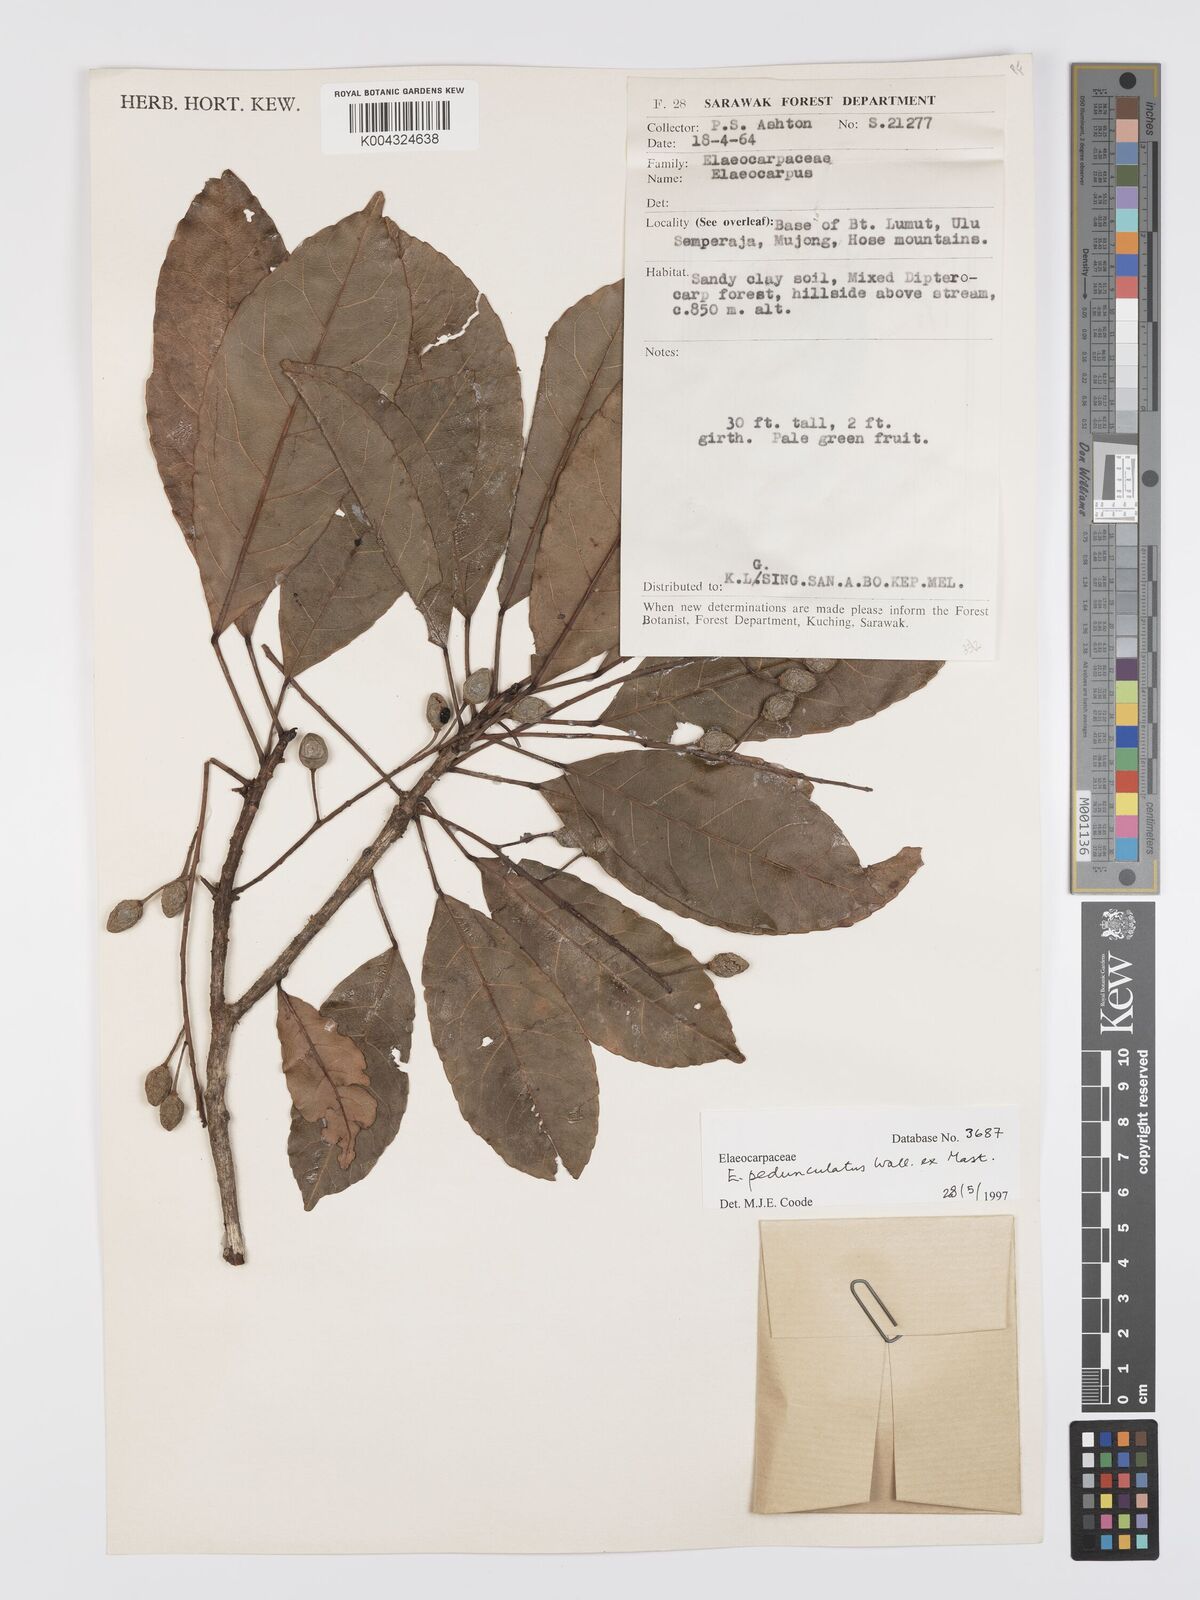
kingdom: Plantae
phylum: Tracheophyta
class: Magnoliopsida
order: Oxalidales
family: Elaeocarpaceae
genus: Elaeocarpus
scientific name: Elaeocarpus pedunculatus
